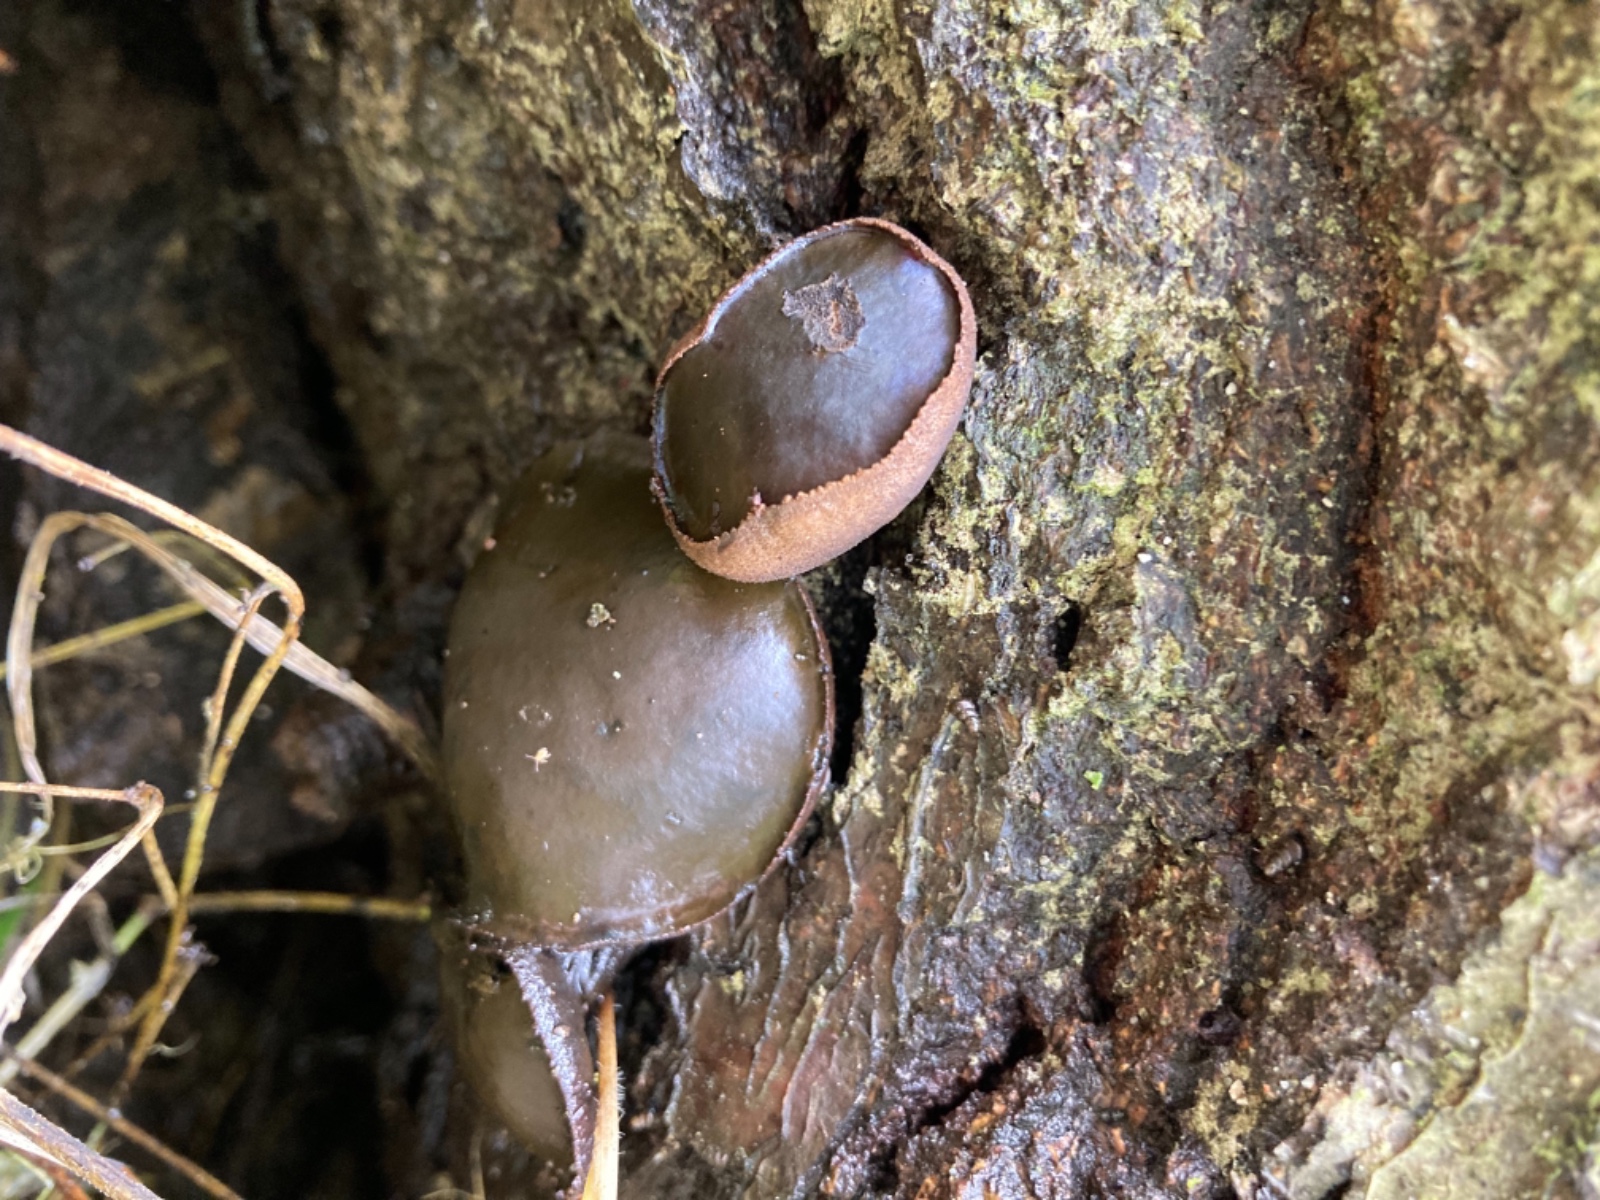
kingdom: Fungi
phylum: Ascomycota
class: Leotiomycetes
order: Phacidiales
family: Phacidiaceae
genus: Bulgaria
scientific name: Bulgaria inquinans
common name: afsmittende topsvamp
